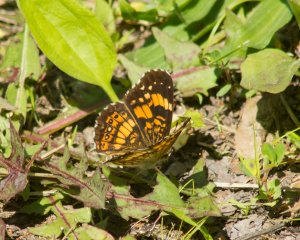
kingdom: Animalia
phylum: Arthropoda
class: Insecta
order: Lepidoptera
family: Nymphalidae
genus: Chlosyne
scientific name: Chlosyne nycteis
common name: Silvery Checkerspot
